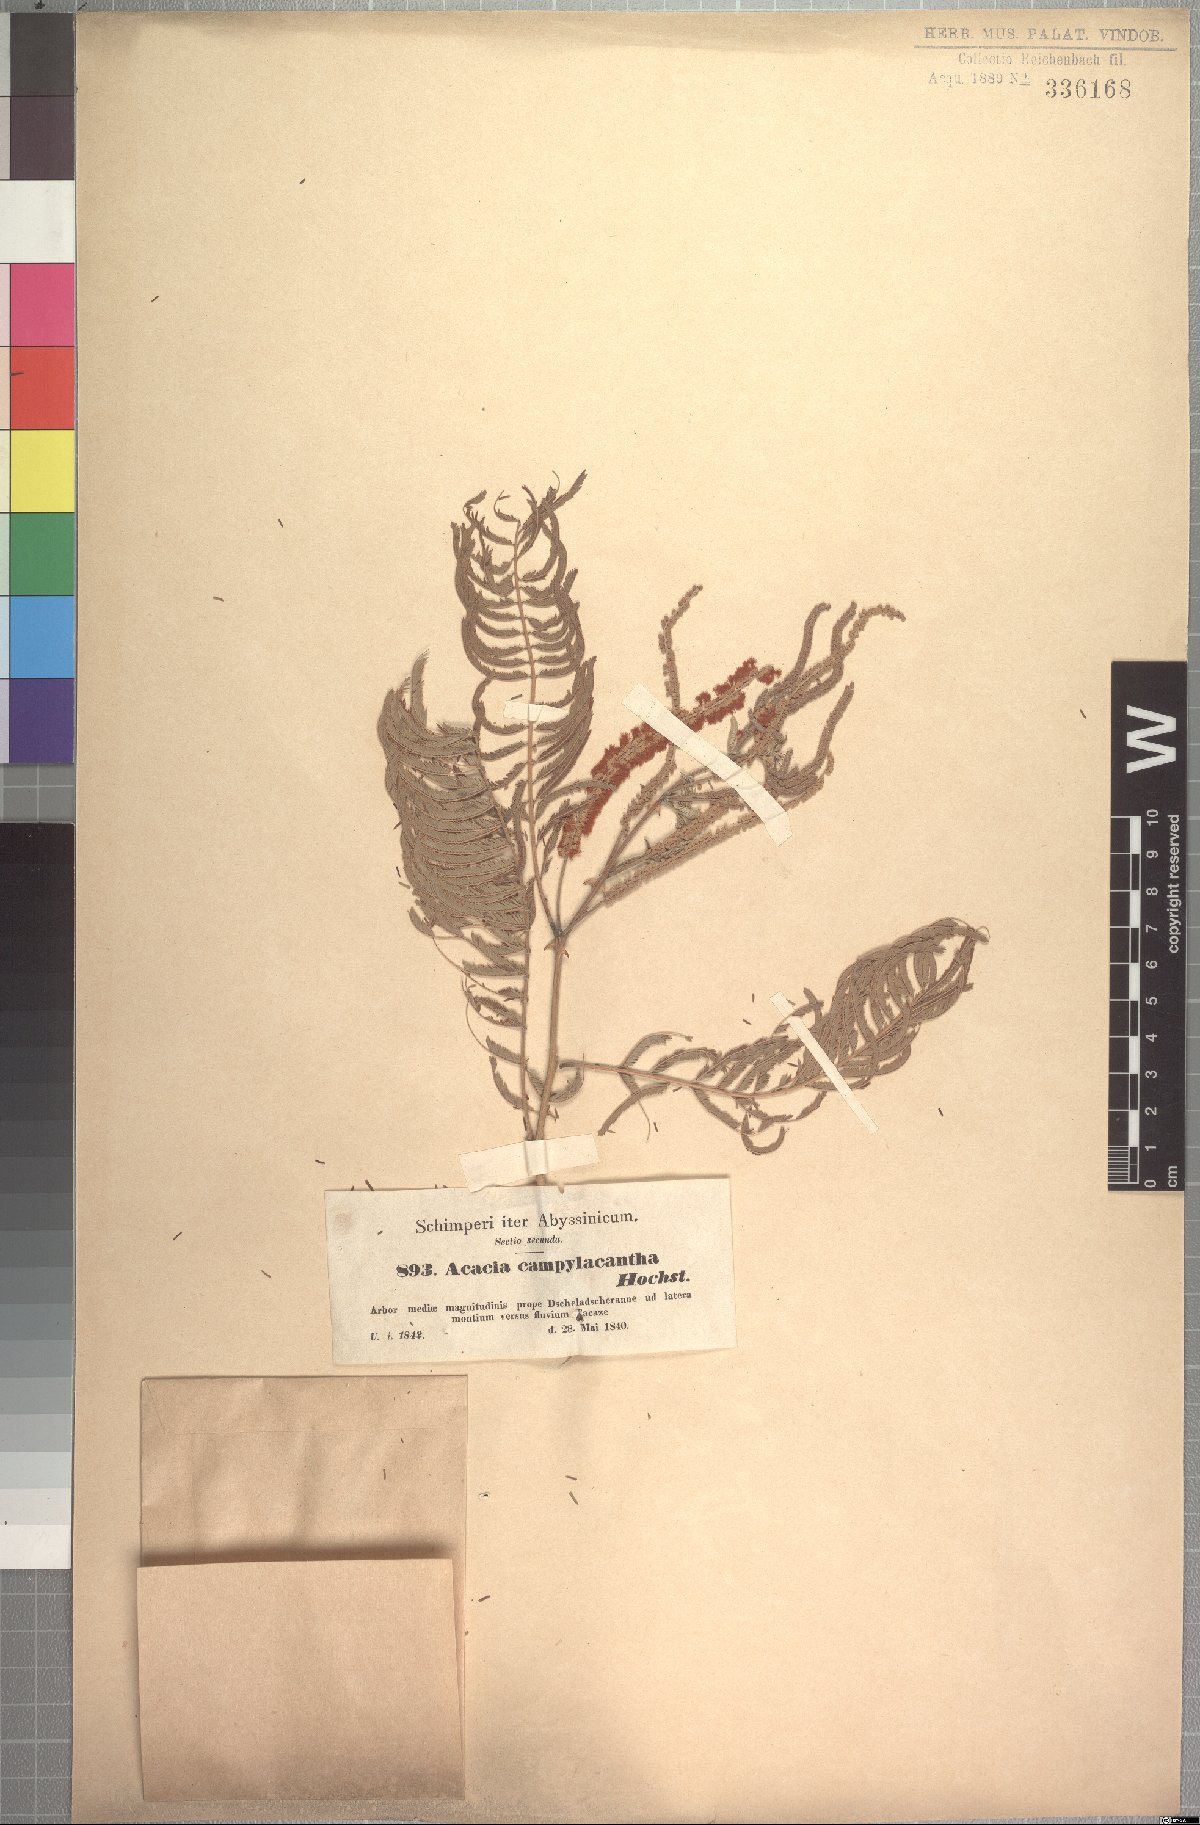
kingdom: Plantae
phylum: Tracheophyta
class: Magnoliopsida
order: Fabales
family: Fabaceae
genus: Senegalia
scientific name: Senegalia polyacantha
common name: Whitethorn
